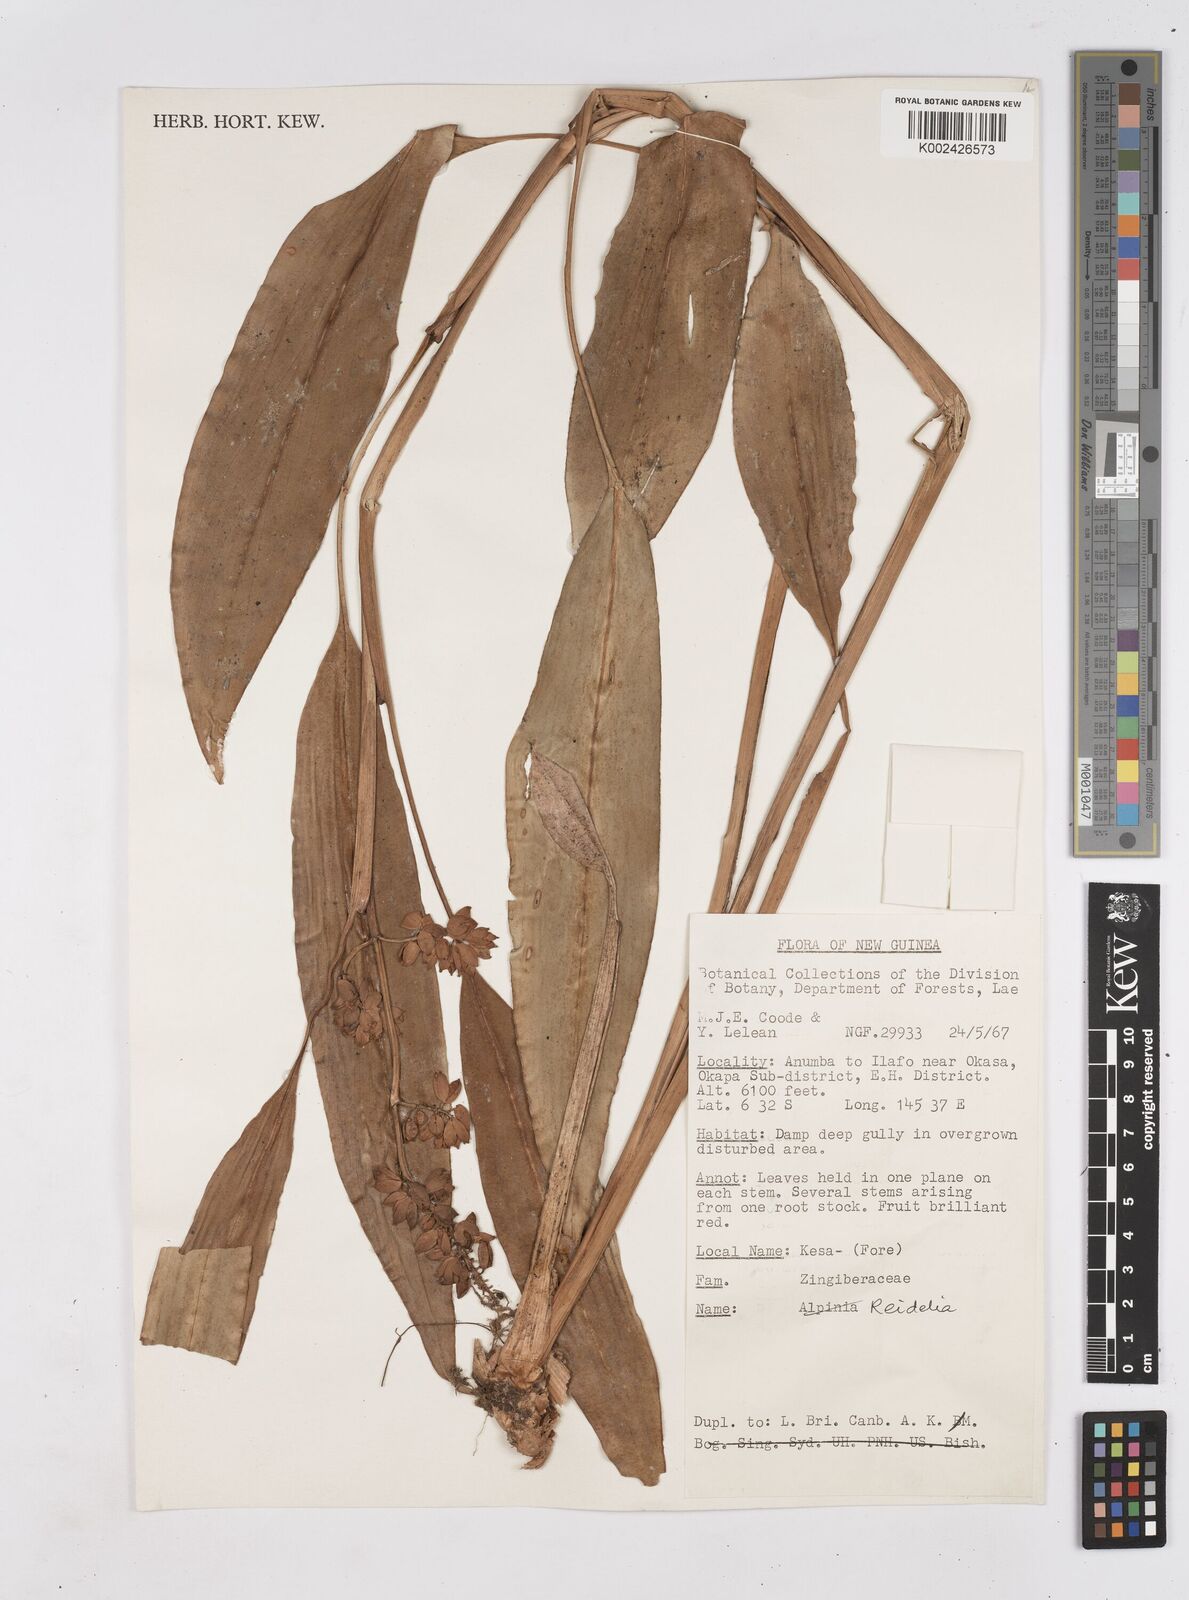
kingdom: Plantae
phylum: Tracheophyta
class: Liliopsida
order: Zingiberales
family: Zingiberaceae
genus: Riedelia
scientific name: Riedelia
